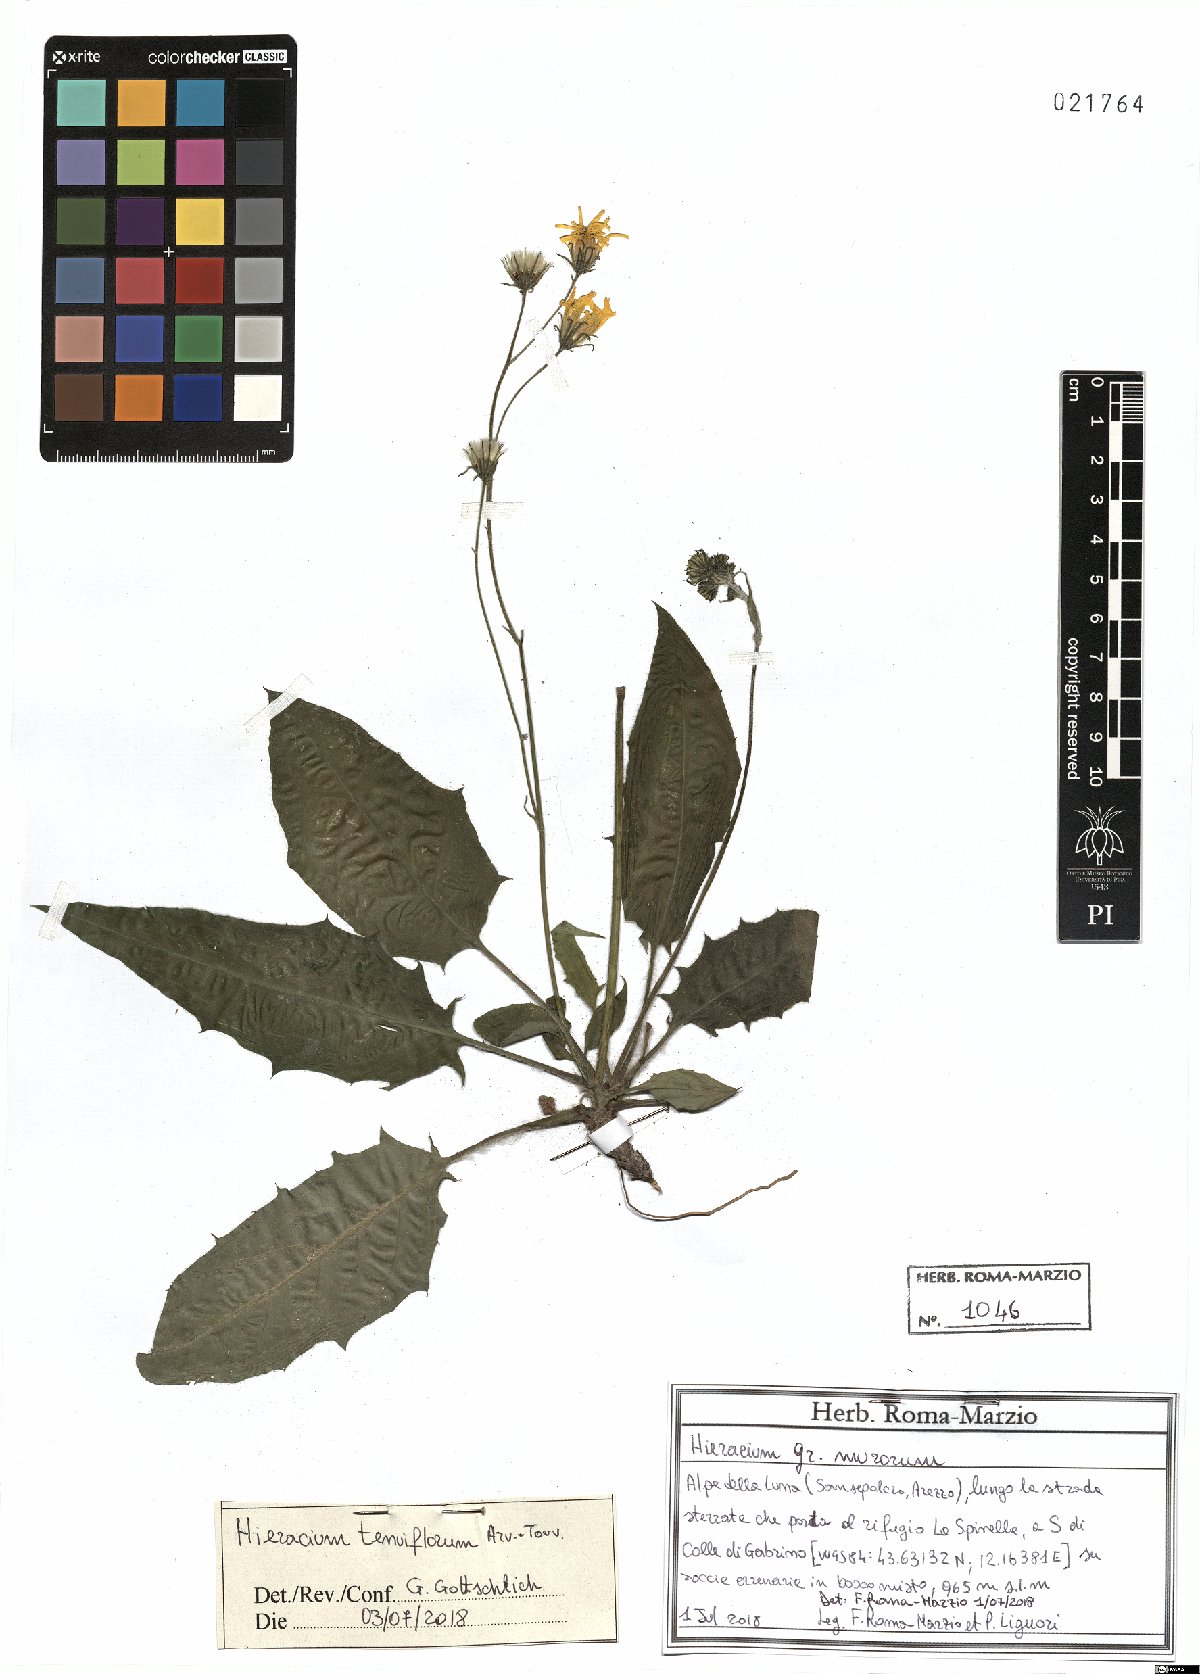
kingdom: Plantae
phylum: Tracheophyta
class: Magnoliopsida
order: Asterales
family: Asteraceae
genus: Hieracium
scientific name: Hieracium tenuiflorum
